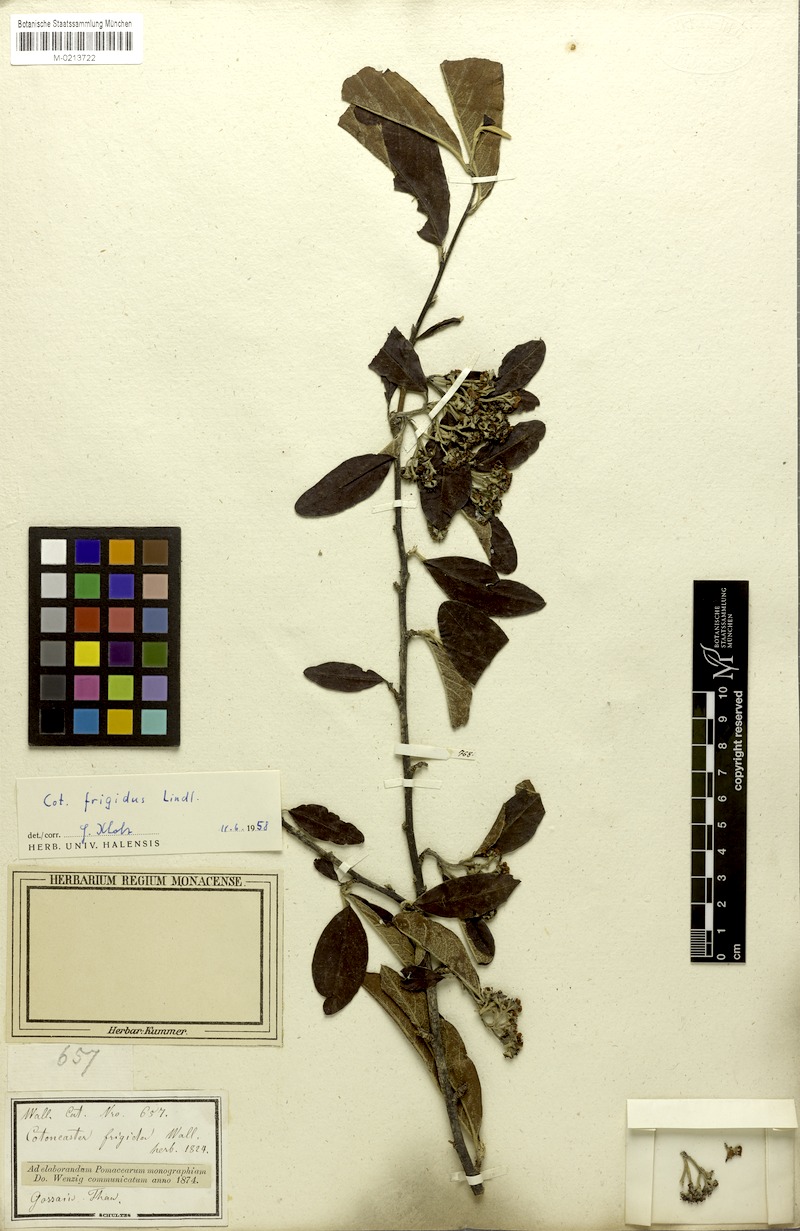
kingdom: Plantae
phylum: Tracheophyta
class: Magnoliopsida
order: Rosales
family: Rosaceae
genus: Cotoneaster
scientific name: Cotoneaster frigidus
